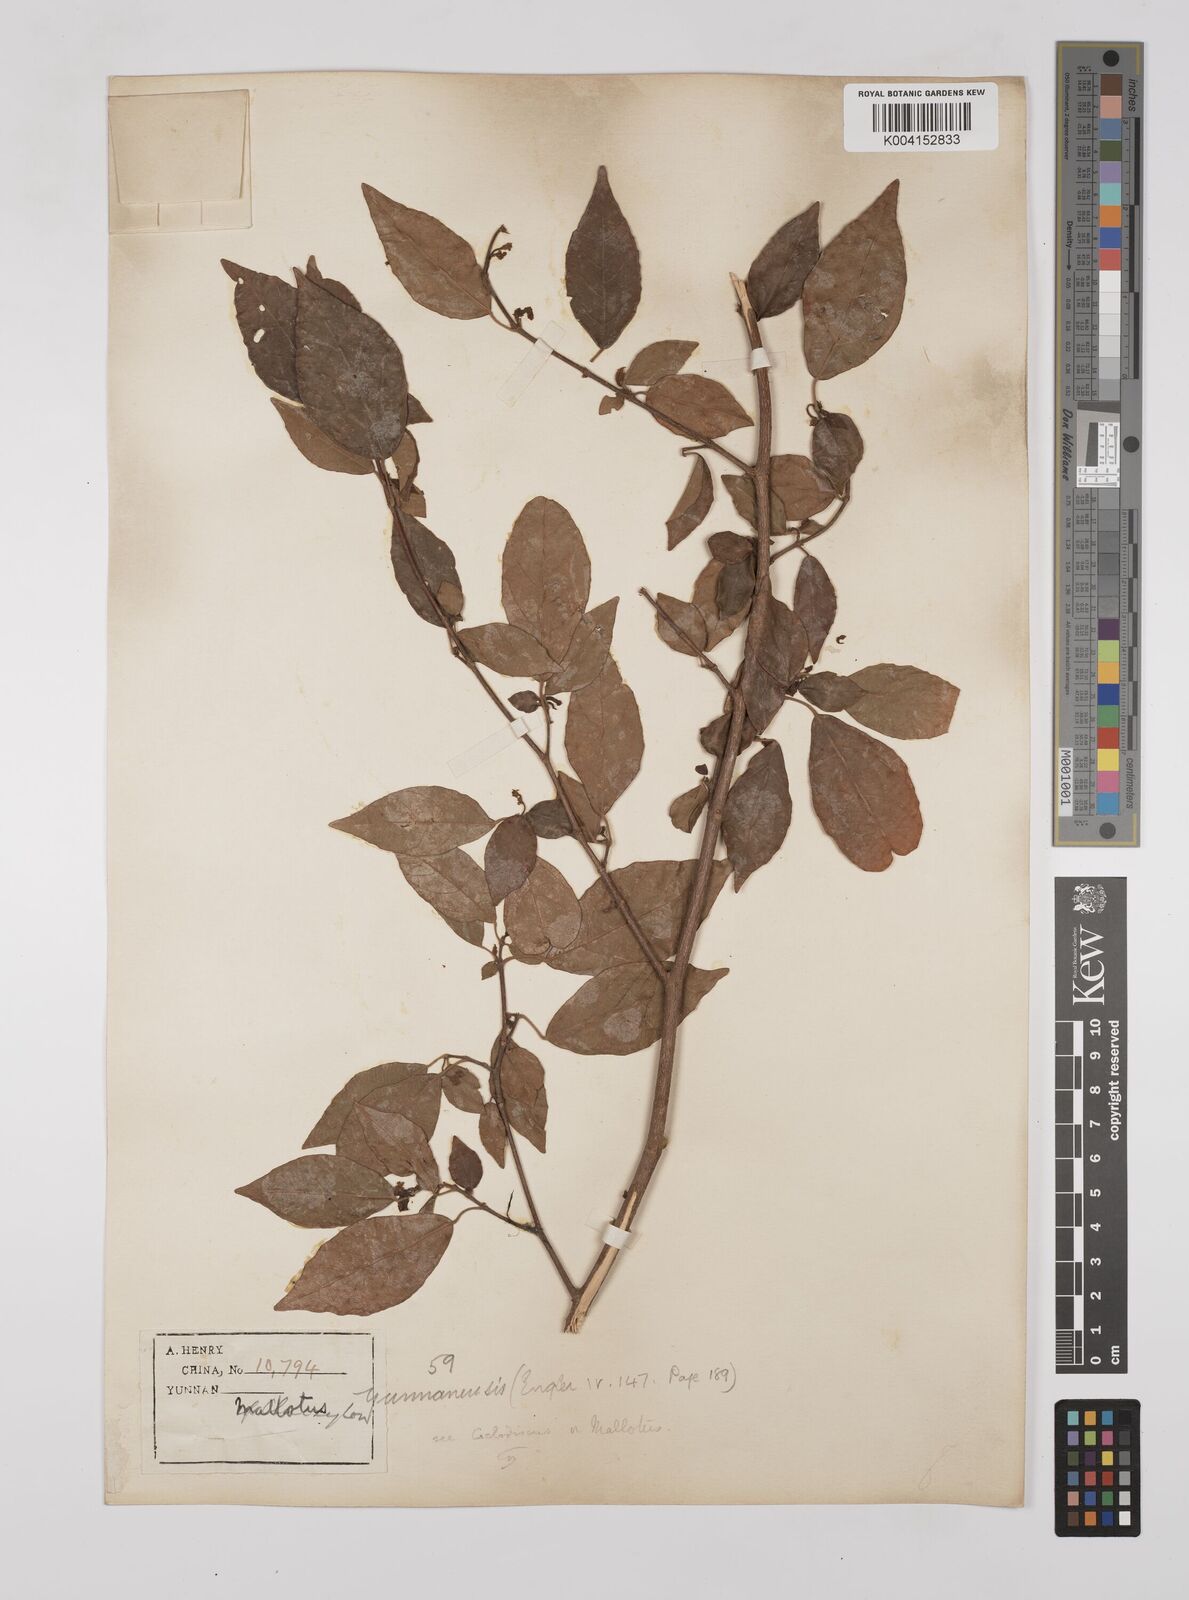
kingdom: Plantae
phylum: Tracheophyta
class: Magnoliopsida
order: Malpighiales
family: Euphorbiaceae
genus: Mallotus
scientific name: Mallotus yunnanensis
